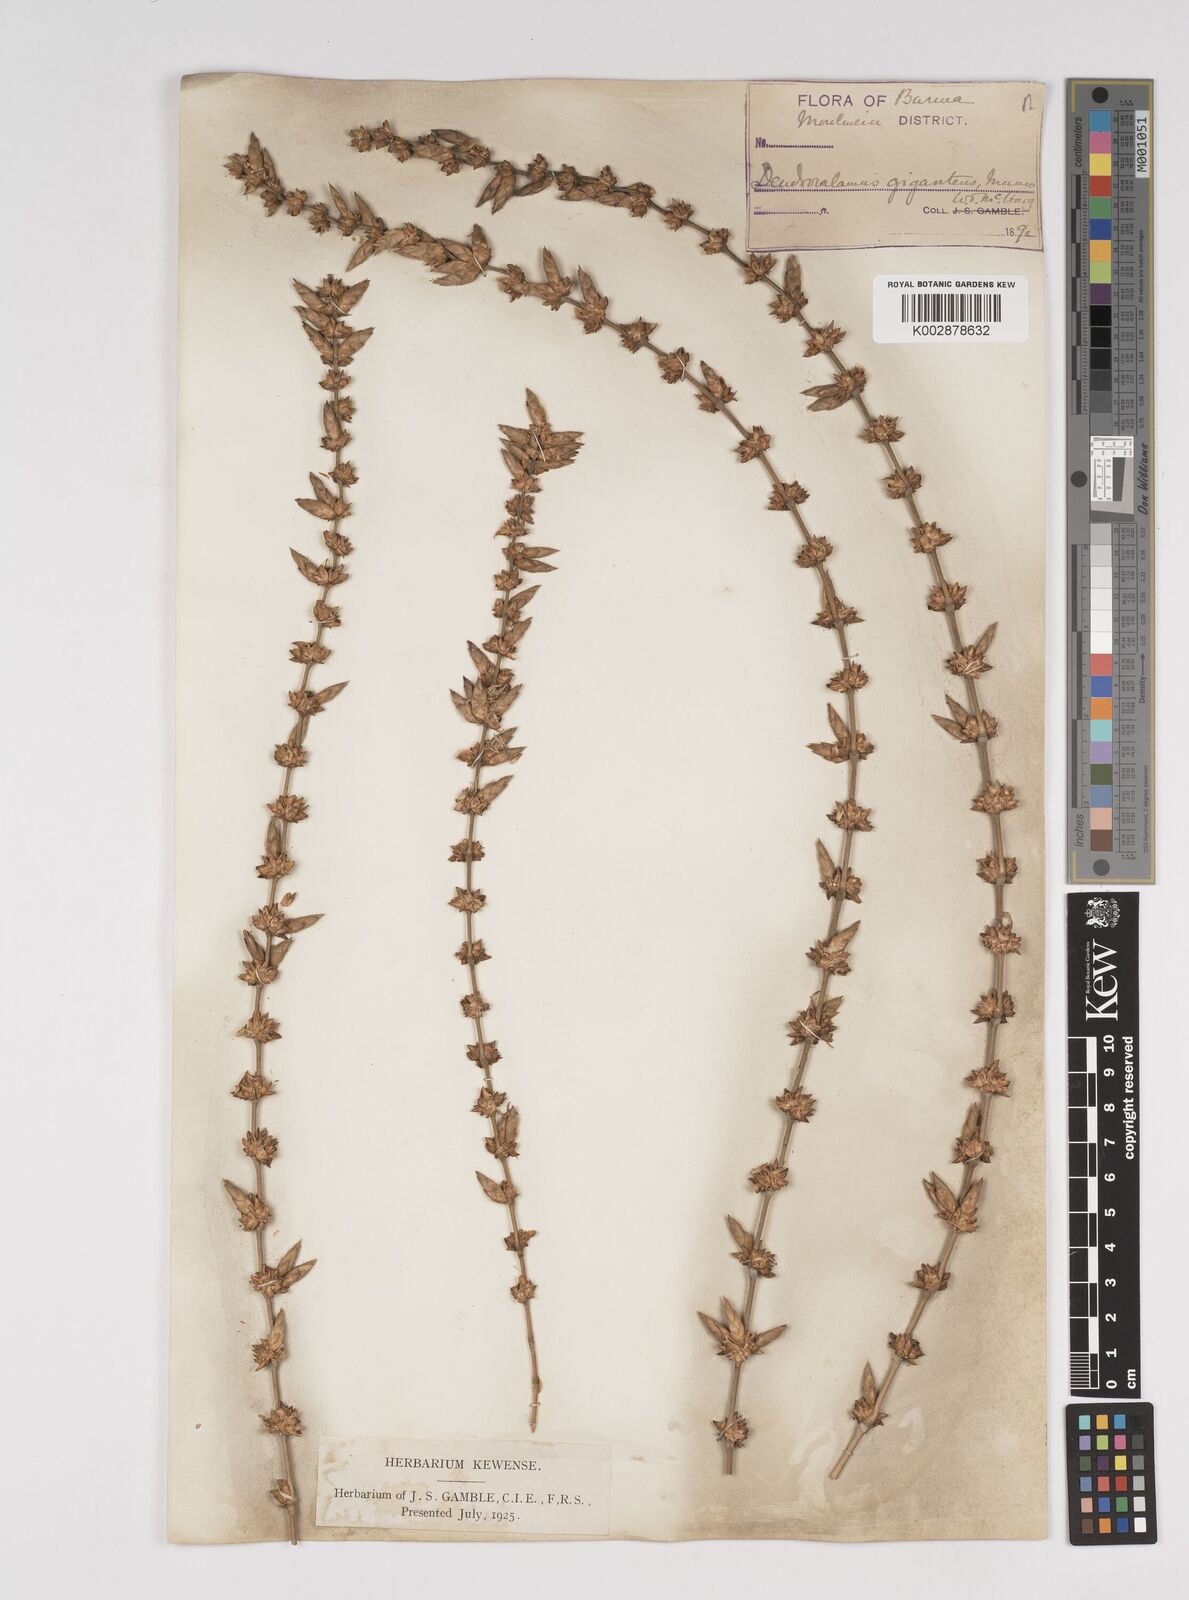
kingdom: Plantae
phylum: Tracheophyta
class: Liliopsida
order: Poales
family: Poaceae
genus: Dendrocalamus
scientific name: Dendrocalamus giganteus
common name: Giant bamboo
